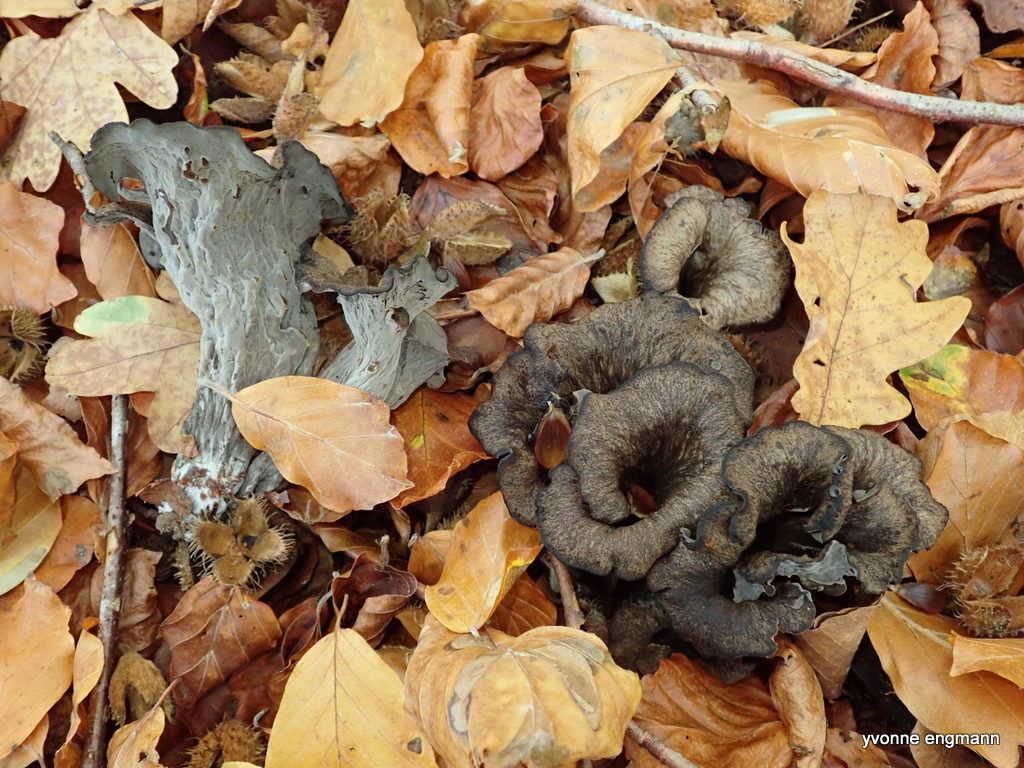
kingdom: Fungi
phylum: Basidiomycota
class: Agaricomycetes
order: Cantharellales
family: Hydnaceae
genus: Craterellus
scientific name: Craterellus cornucopioides
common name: trompetsvamp
